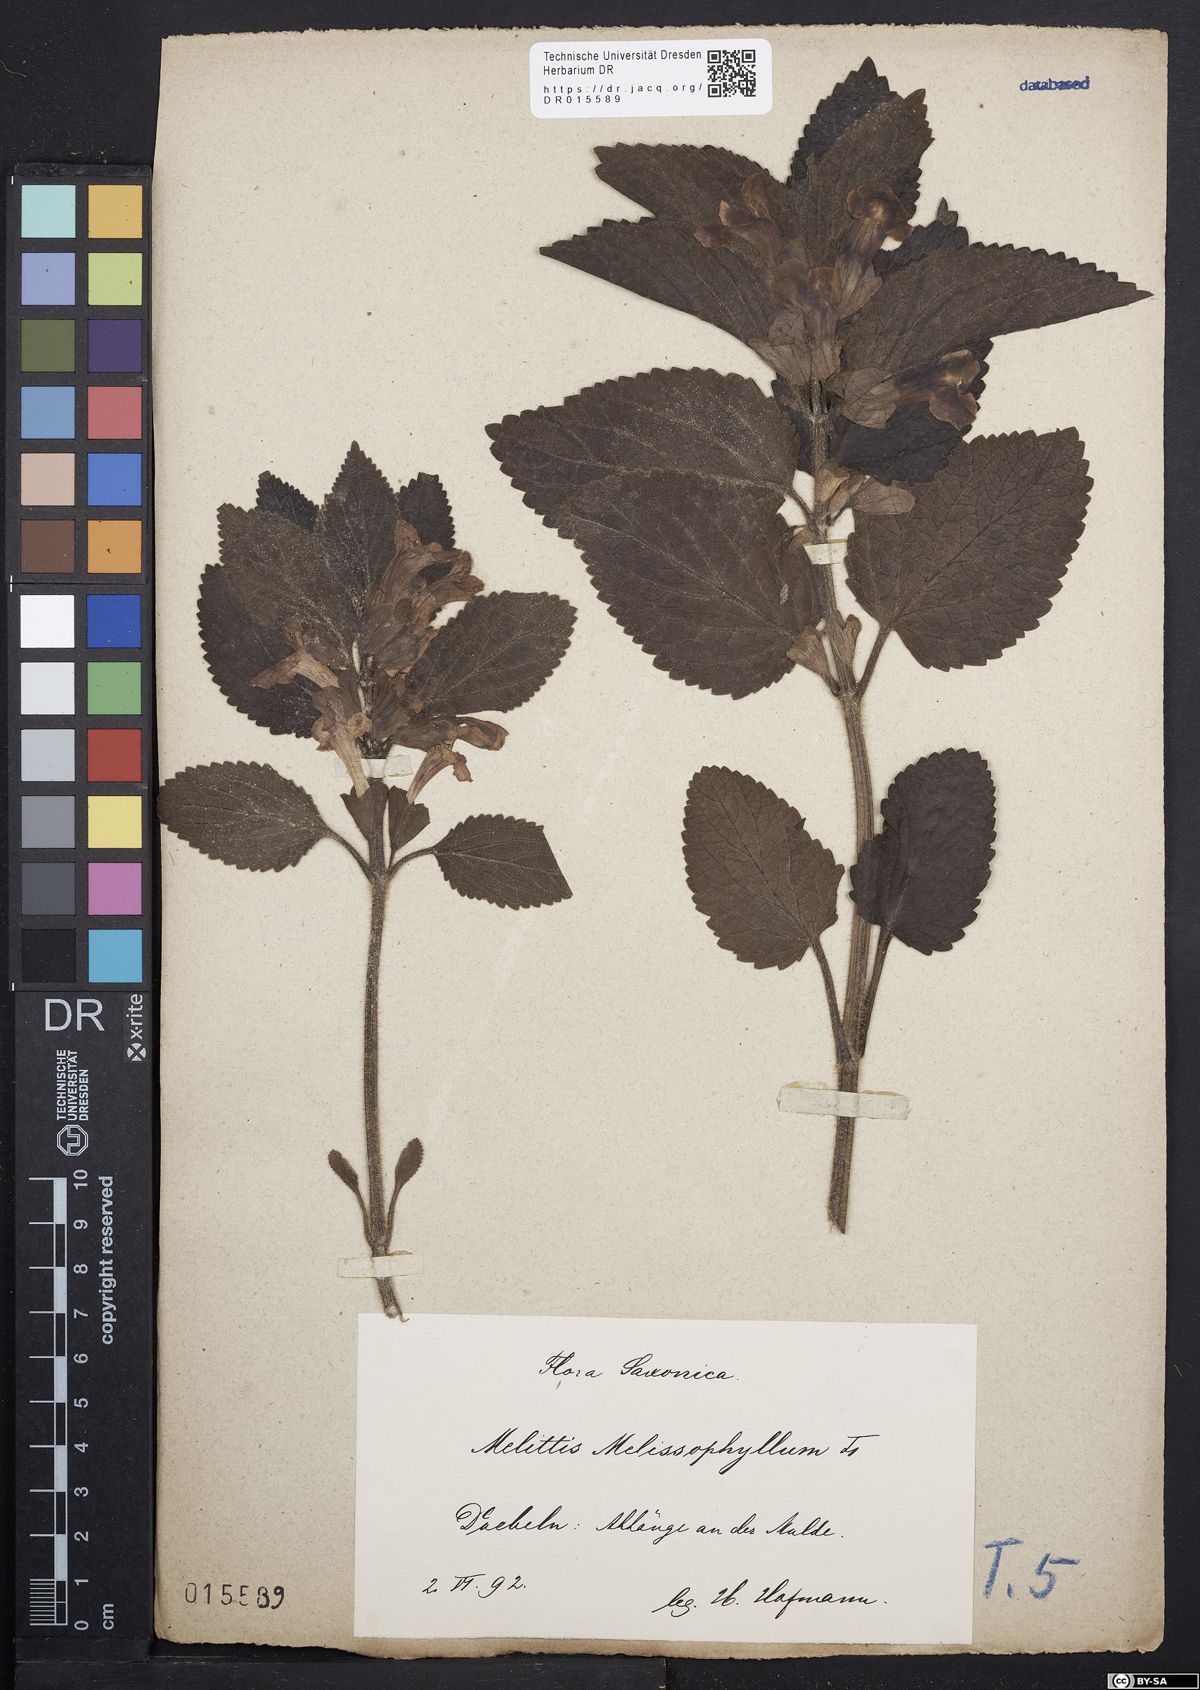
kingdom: Plantae
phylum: Tracheophyta
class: Magnoliopsida
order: Lamiales
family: Lamiaceae
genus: Melittis
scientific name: Melittis melissophyllum
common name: Bastard balm
